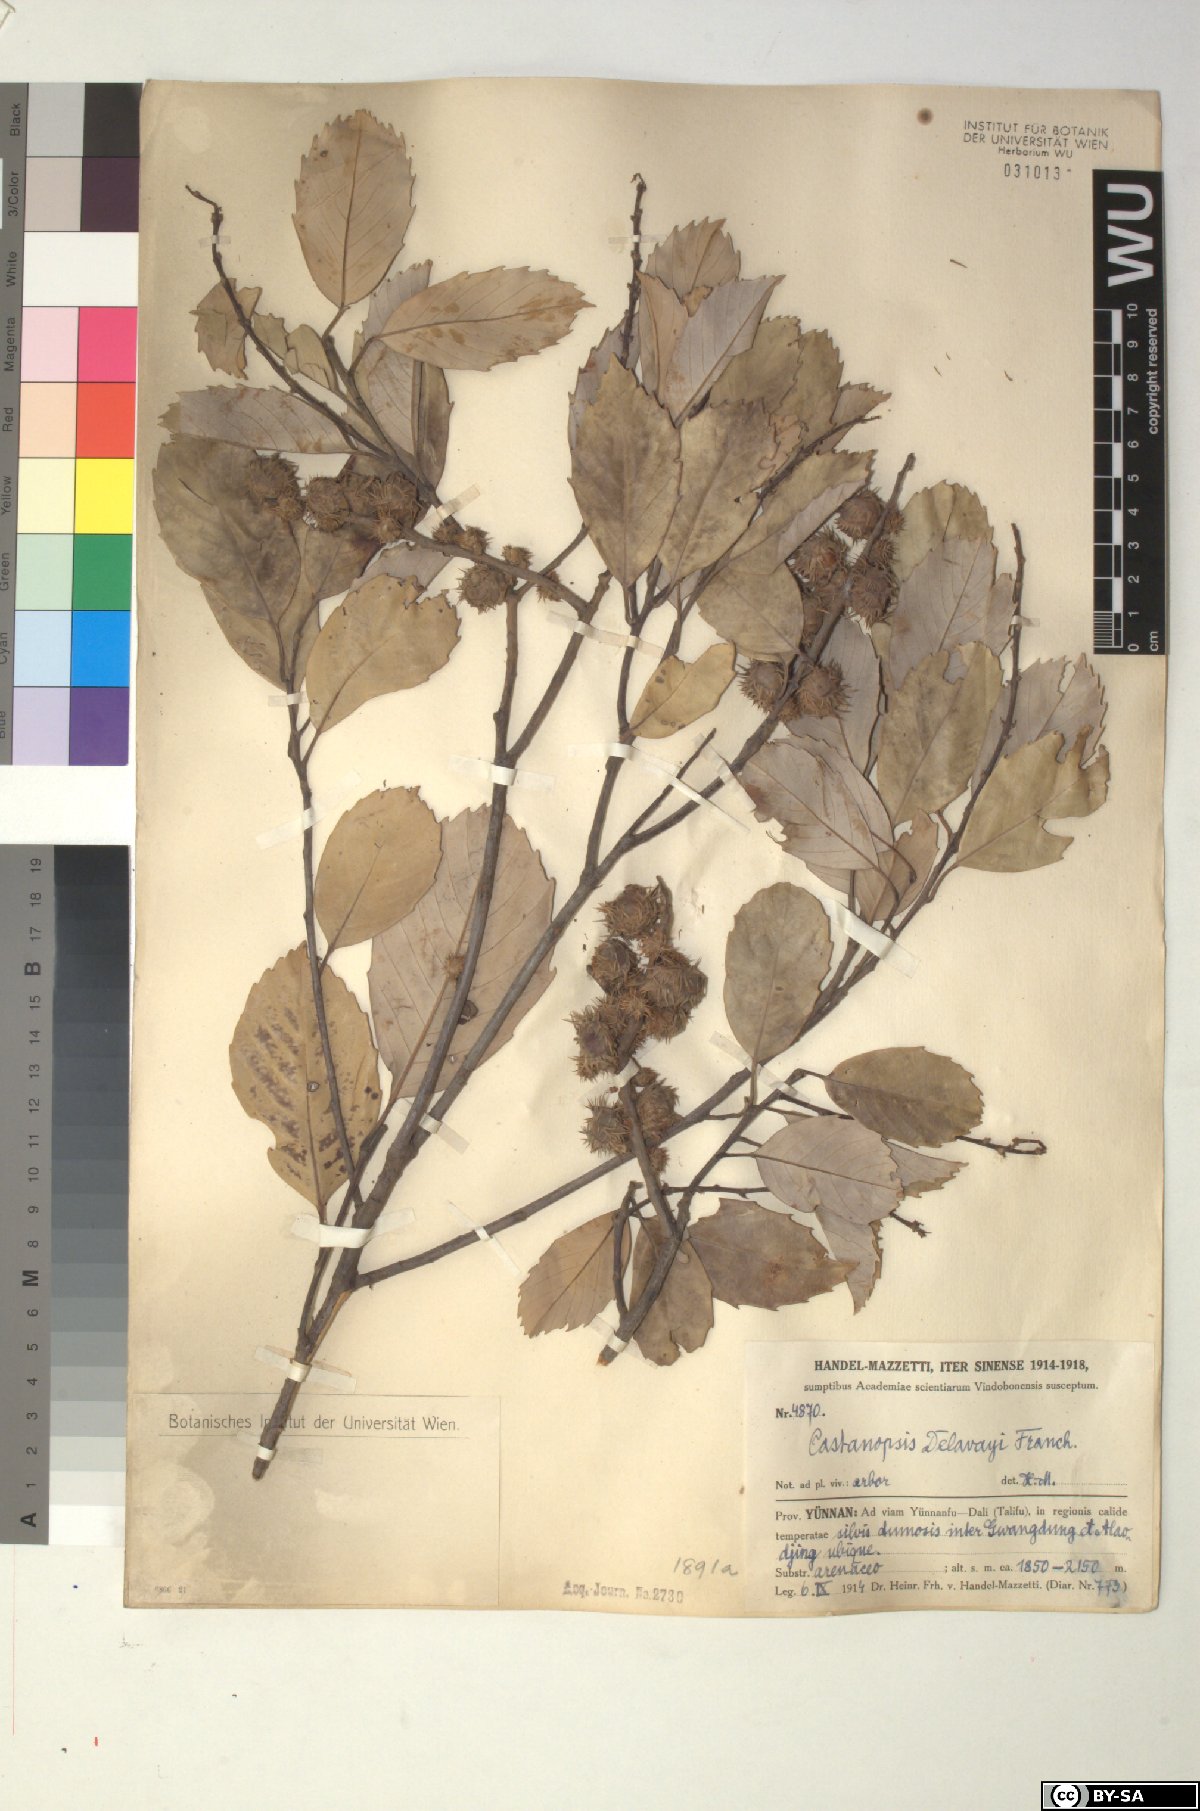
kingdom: Plantae
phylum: Tracheophyta
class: Magnoliopsida
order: Fagales
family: Fagaceae
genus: Castanopsis
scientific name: Castanopsis delavayi
